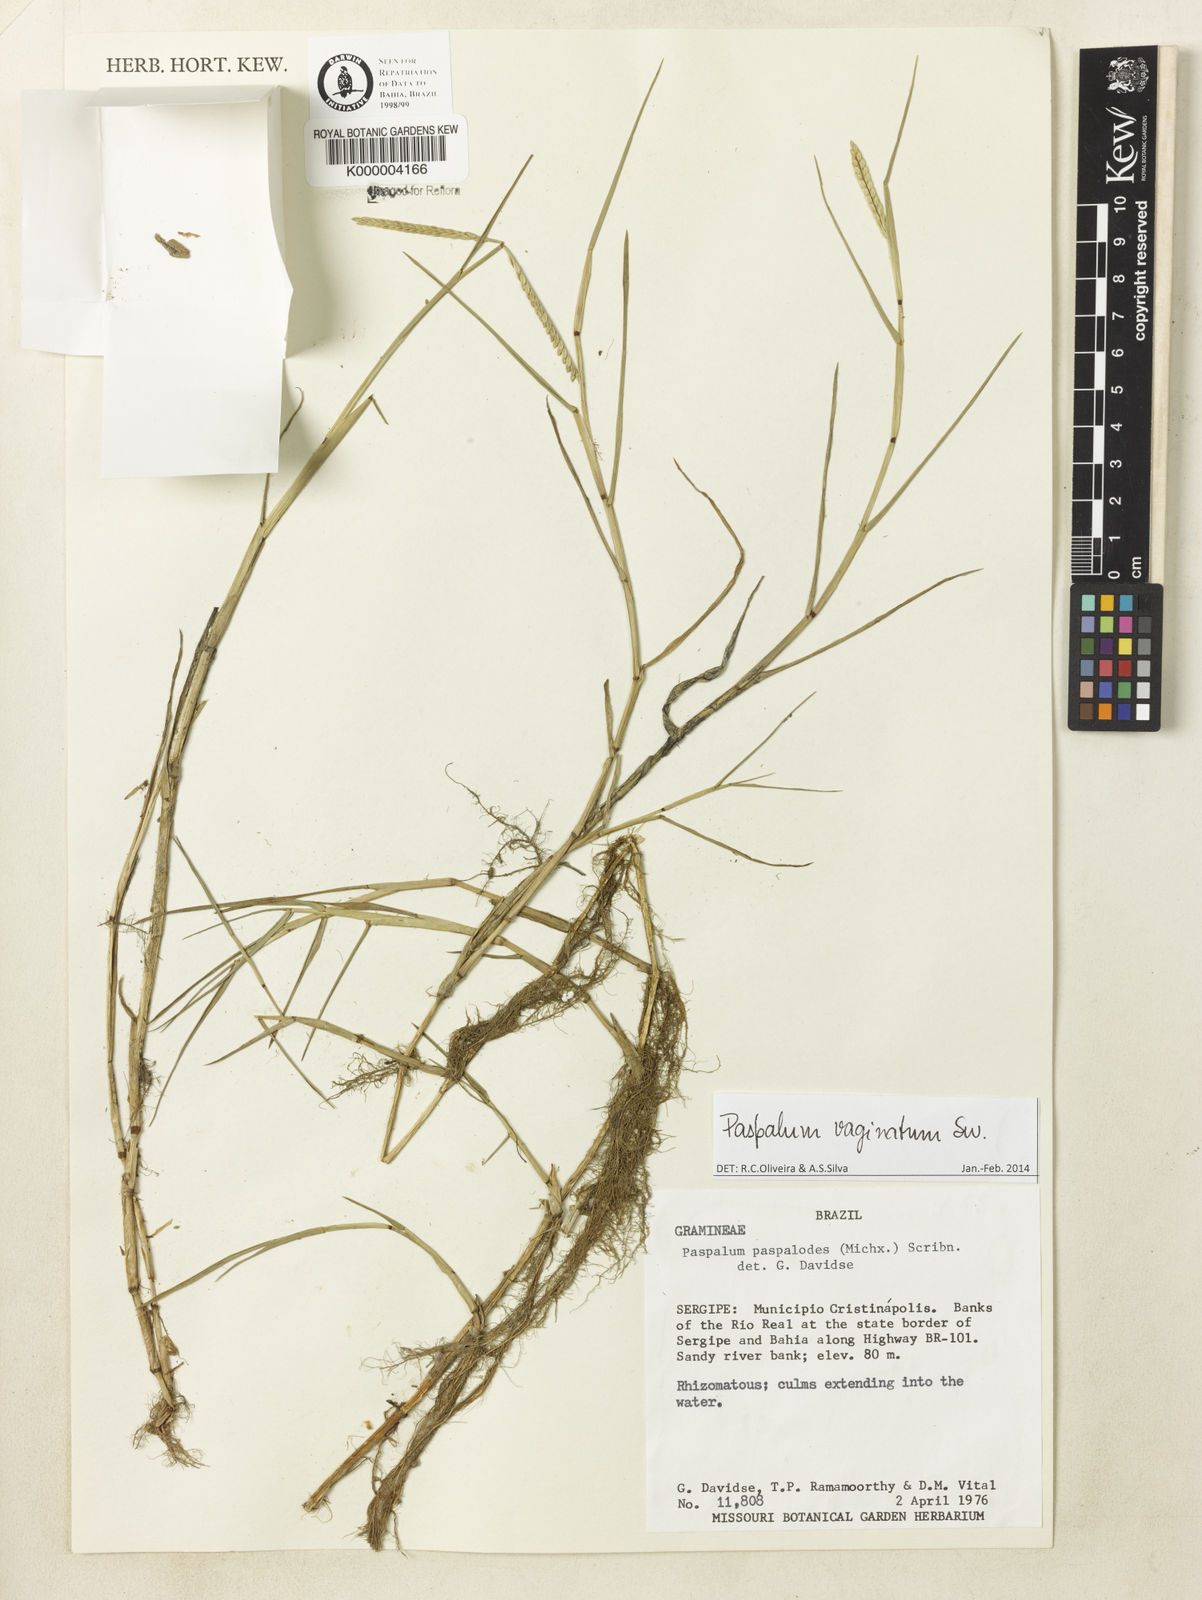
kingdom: Plantae
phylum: Tracheophyta
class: Liliopsida
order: Poales
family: Poaceae
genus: Paspalum
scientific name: Paspalum distichum
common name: Knotgrass
